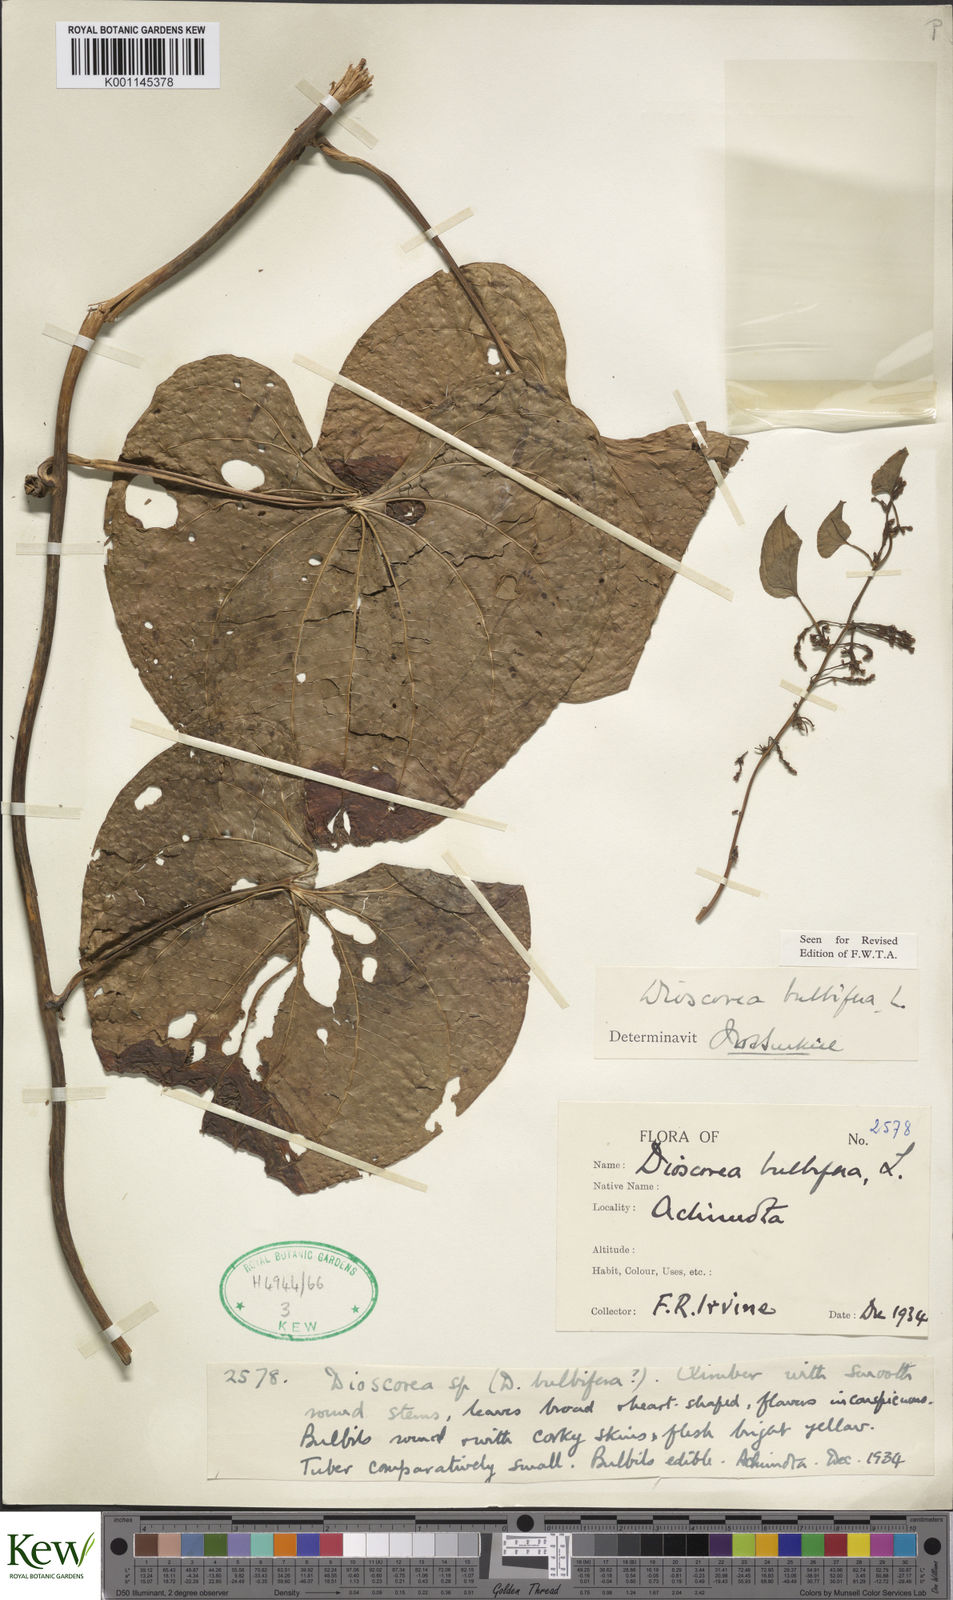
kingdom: Plantae
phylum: Tracheophyta
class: Liliopsida
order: Dioscoreales
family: Dioscoreaceae
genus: Dioscorea
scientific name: Dioscorea bulbifera
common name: Air yam
